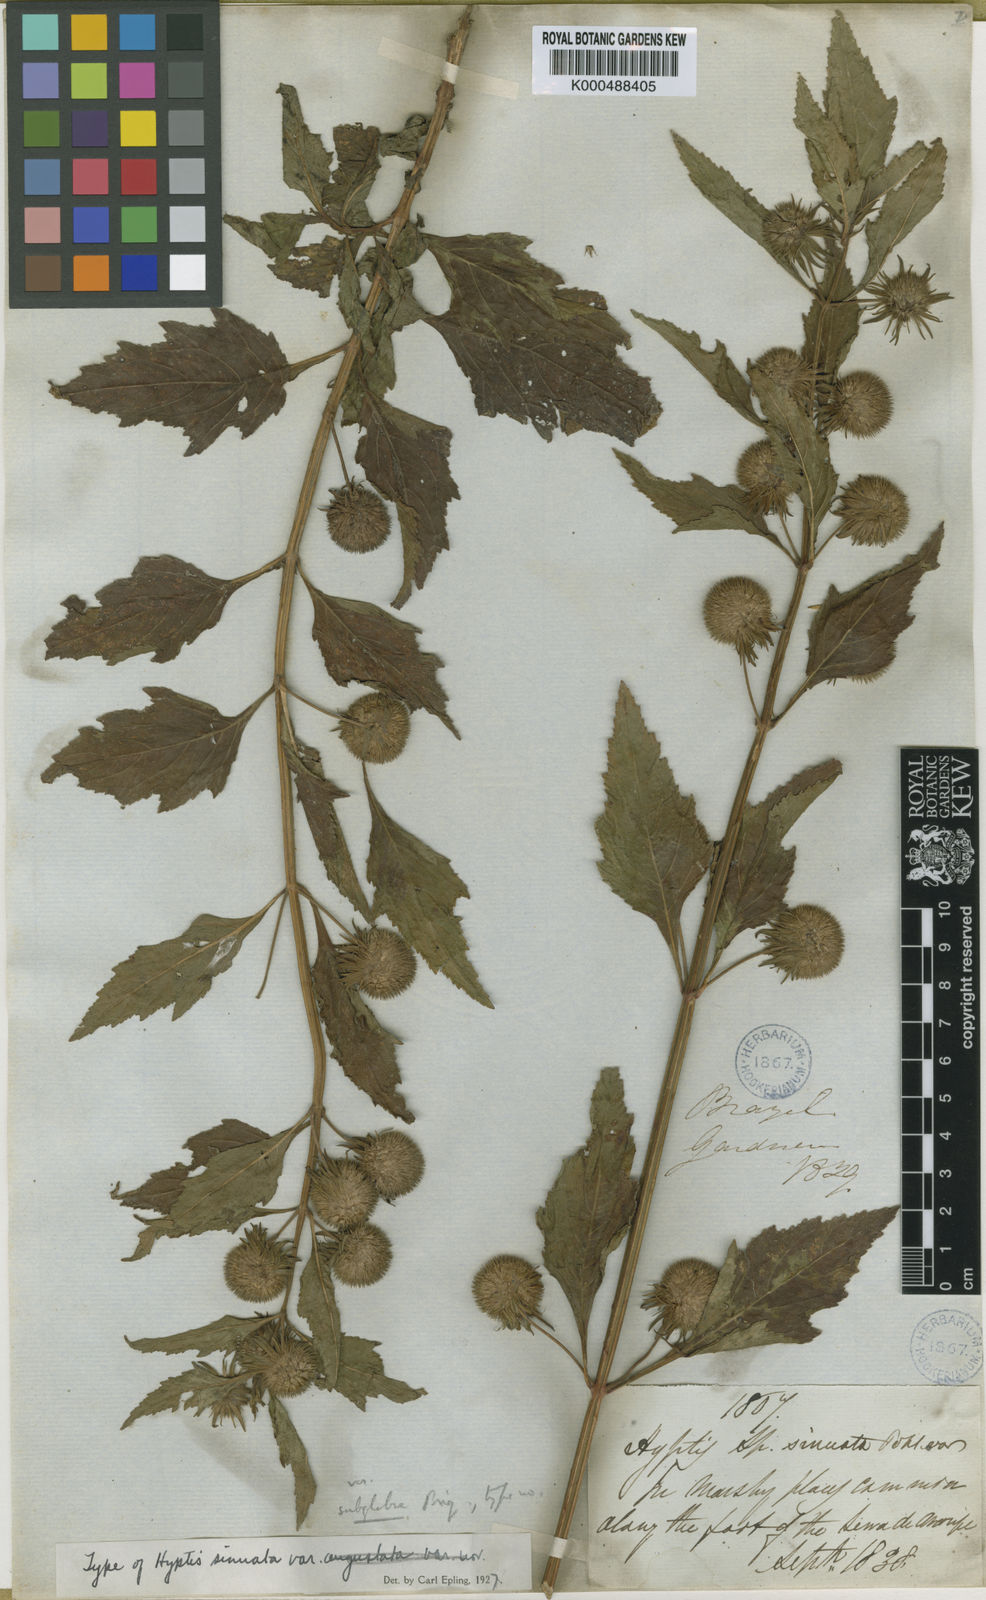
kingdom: Plantae
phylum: Tracheophyta
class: Magnoliopsida
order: Lamiales
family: Lamiaceae
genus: Hyptis
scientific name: Hyptis sinuata
